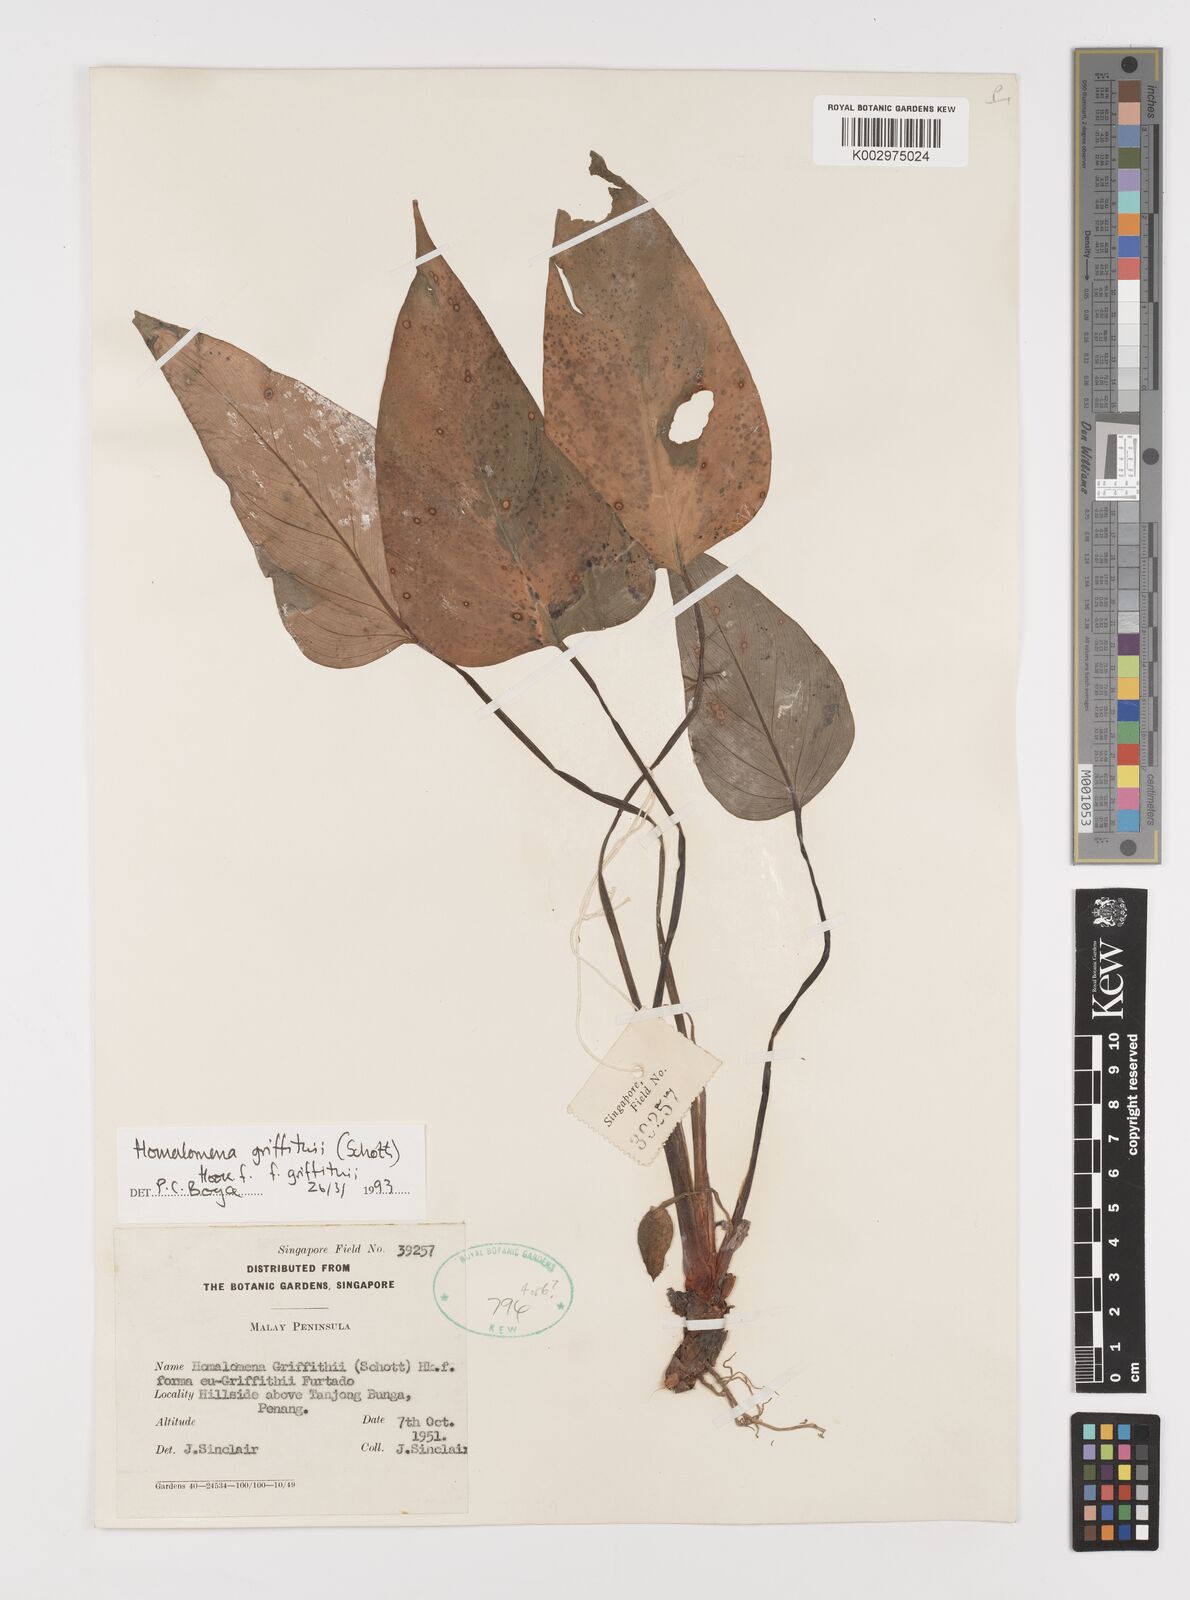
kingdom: Plantae
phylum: Tracheophyta
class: Liliopsida
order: Alismatales
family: Araceae
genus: Homalomena
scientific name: Homalomena griffithii
